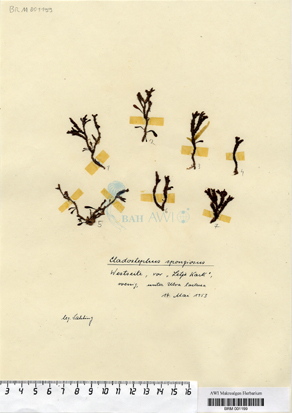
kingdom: Chromista
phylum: Ochrophyta
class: Phaeophyceae
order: Sphacelariales
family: Cladostephaceae
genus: Cladostephus
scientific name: Cladostephus spongiosus
